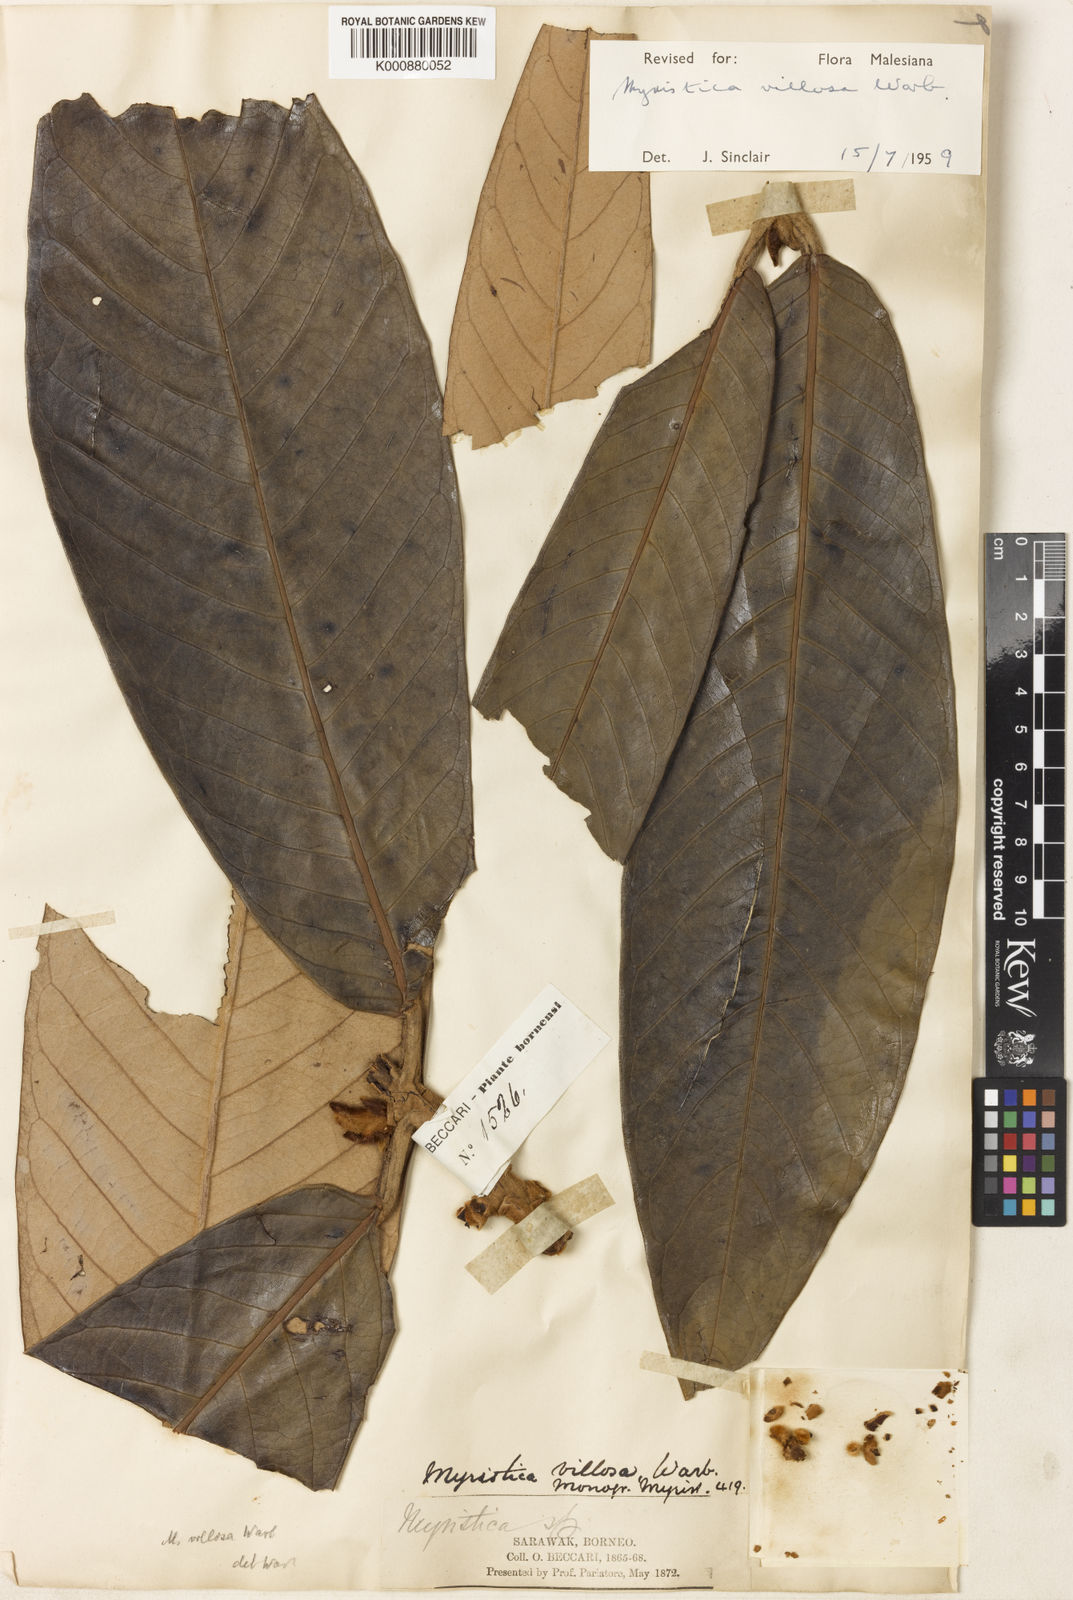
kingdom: Plantae
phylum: Tracheophyta
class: Magnoliopsida
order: Magnoliales
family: Myristicaceae
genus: Myristica
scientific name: Myristica villosa
